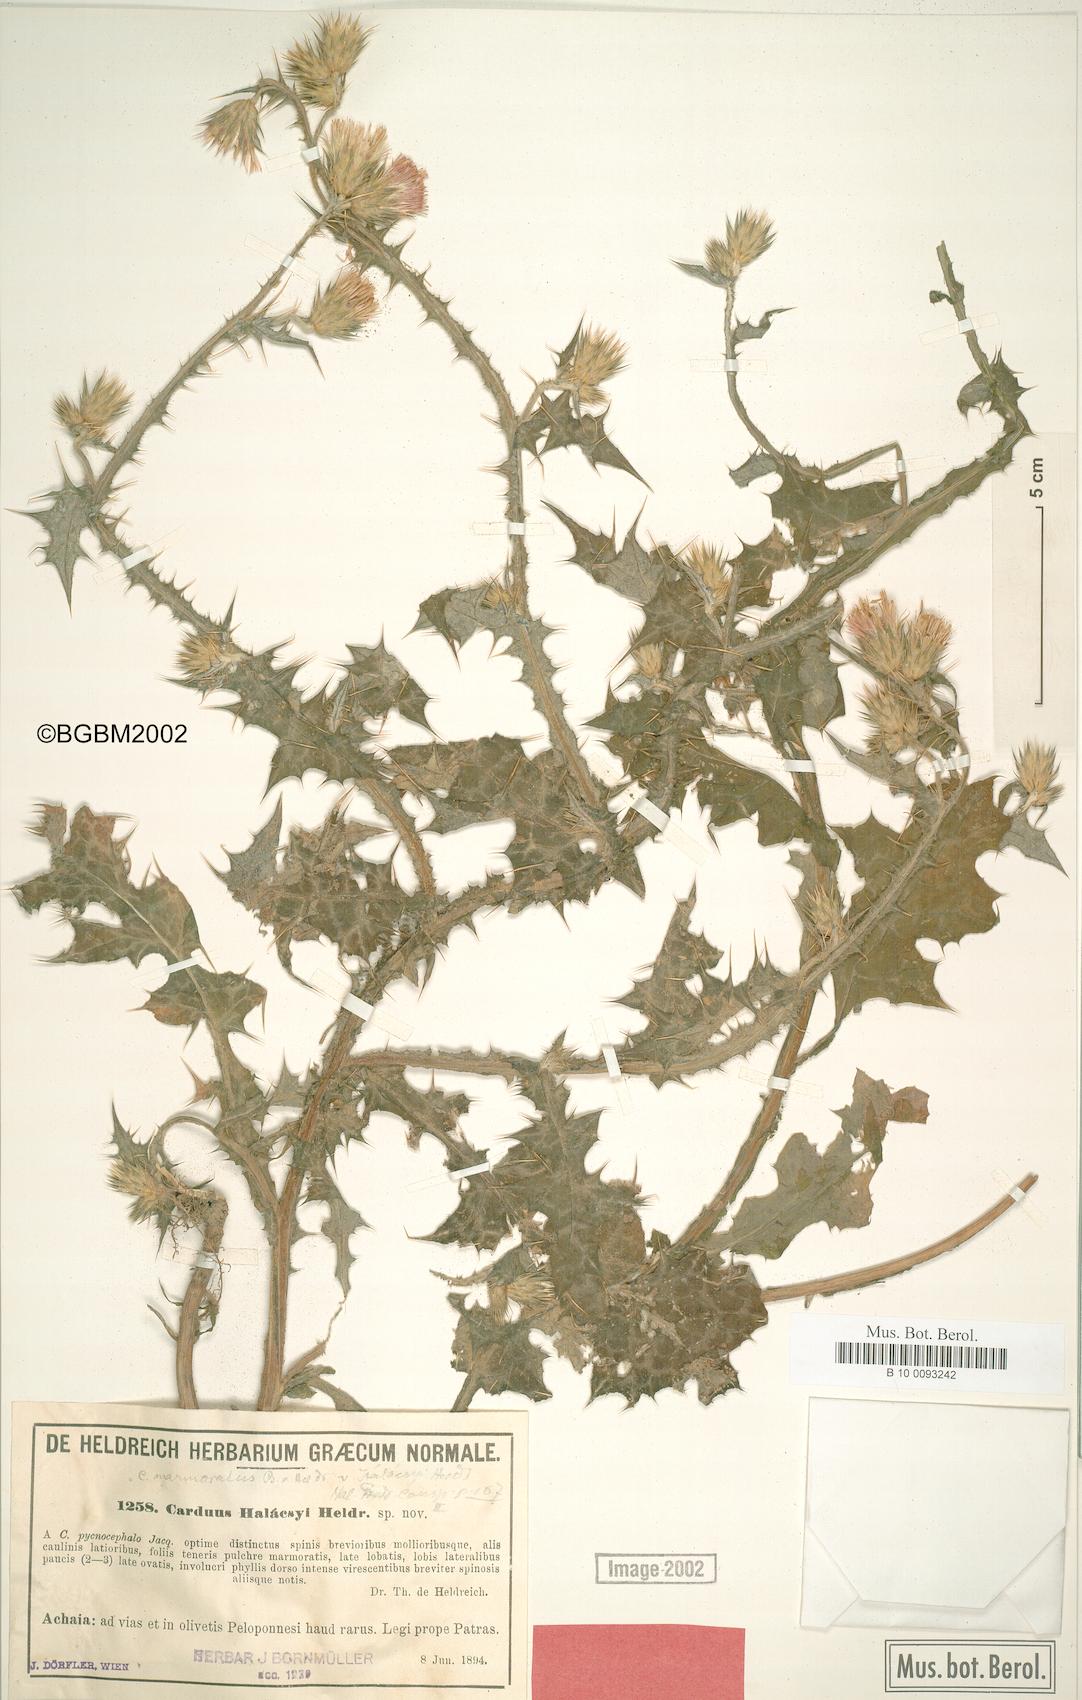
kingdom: Plantae
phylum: Tracheophyta
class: Magnoliopsida
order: Asterales
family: Asteraceae
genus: Carduus
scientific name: Carduus arabicus
